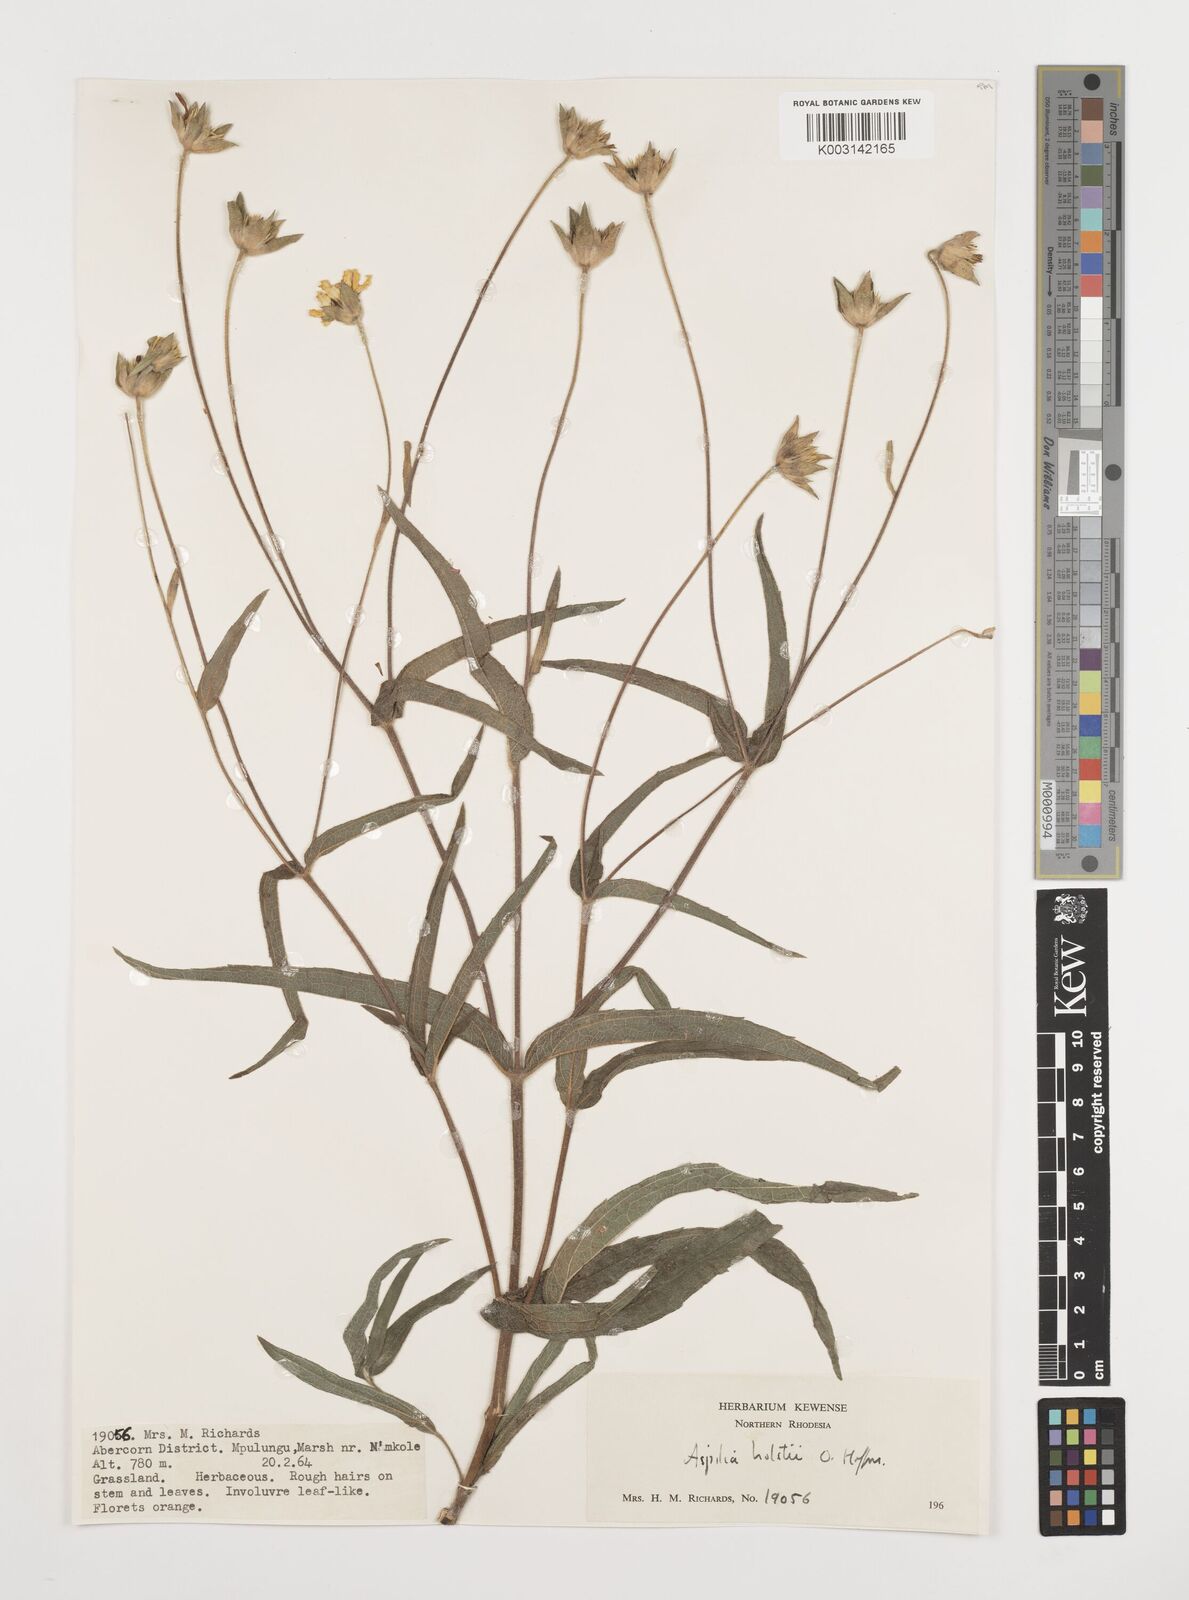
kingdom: Plantae
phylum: Tracheophyta
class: Magnoliopsida
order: Asterales
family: Asteraceae
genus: Aspilia
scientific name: Aspilia natalensis
